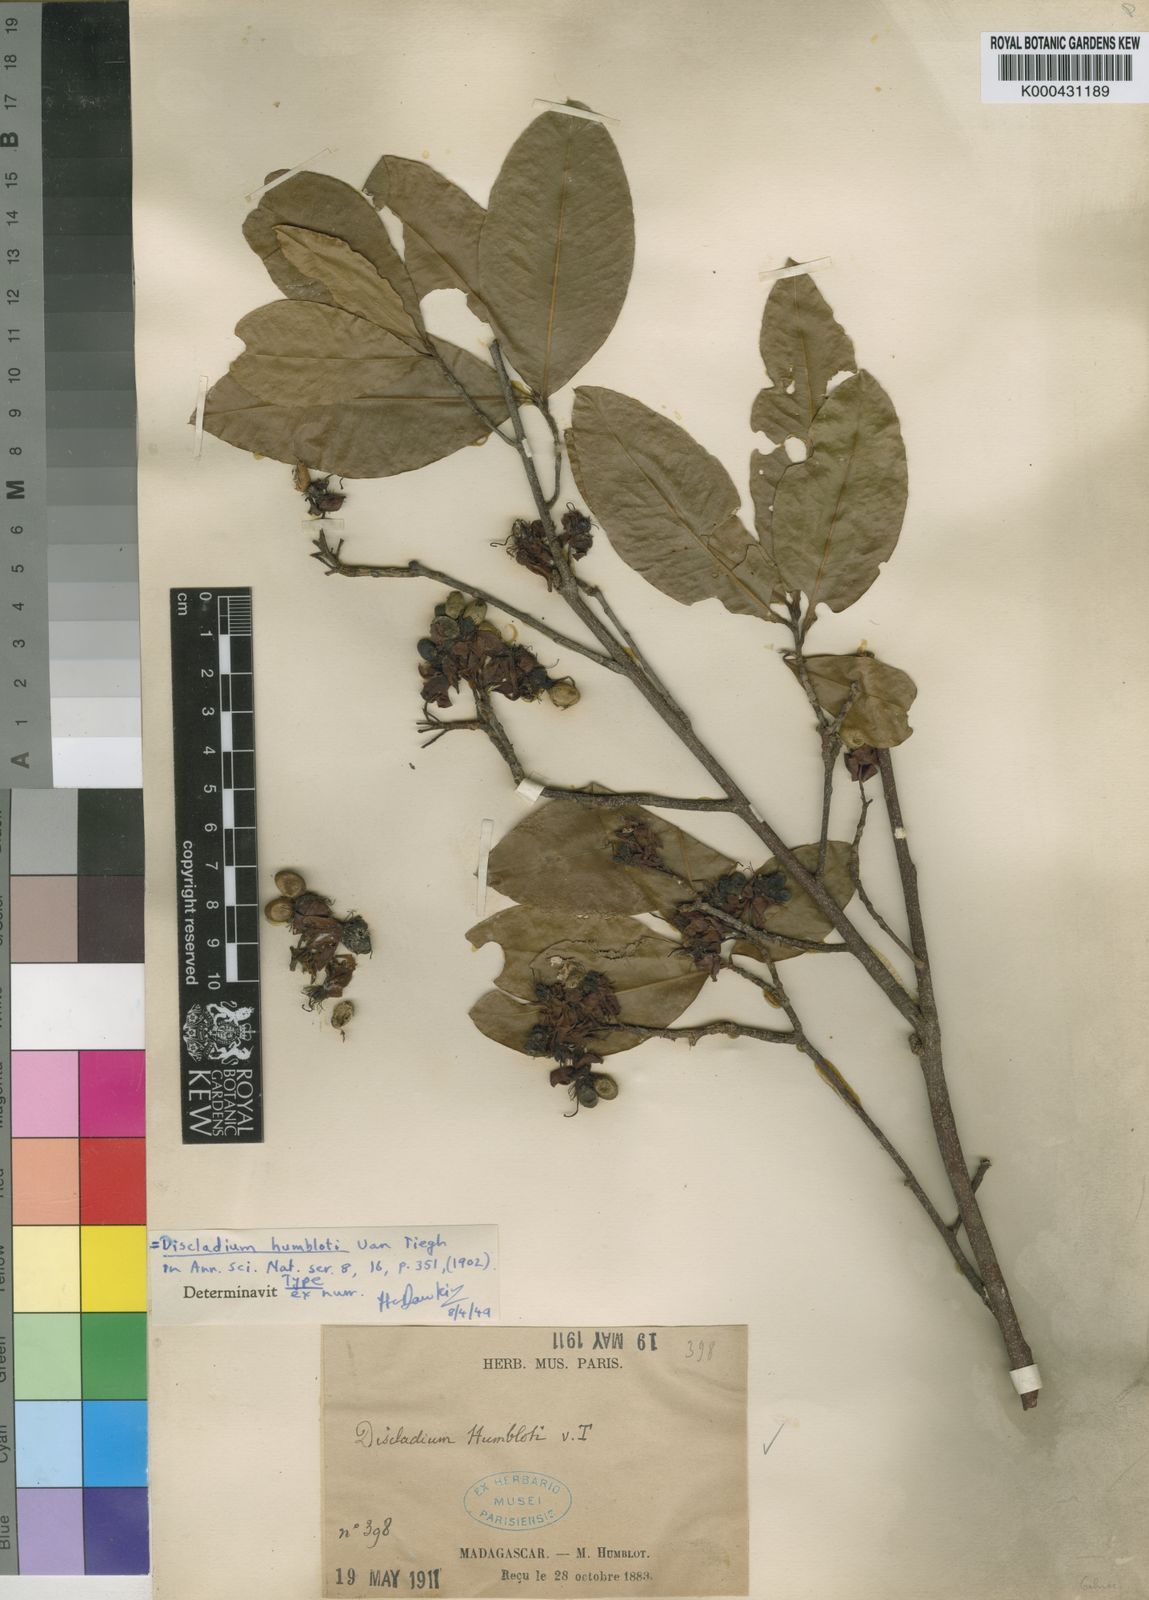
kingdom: Plantae
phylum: Tracheophyta
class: Magnoliopsida
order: Malpighiales
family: Ochnaceae
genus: Campylospermum
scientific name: Campylospermum humblotii
